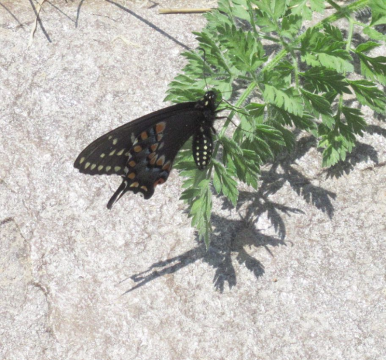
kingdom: Animalia
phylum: Arthropoda
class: Insecta
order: Lepidoptera
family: Papilionidae
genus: Papilio
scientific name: Papilio polyxenes
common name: Black Swallowtail
